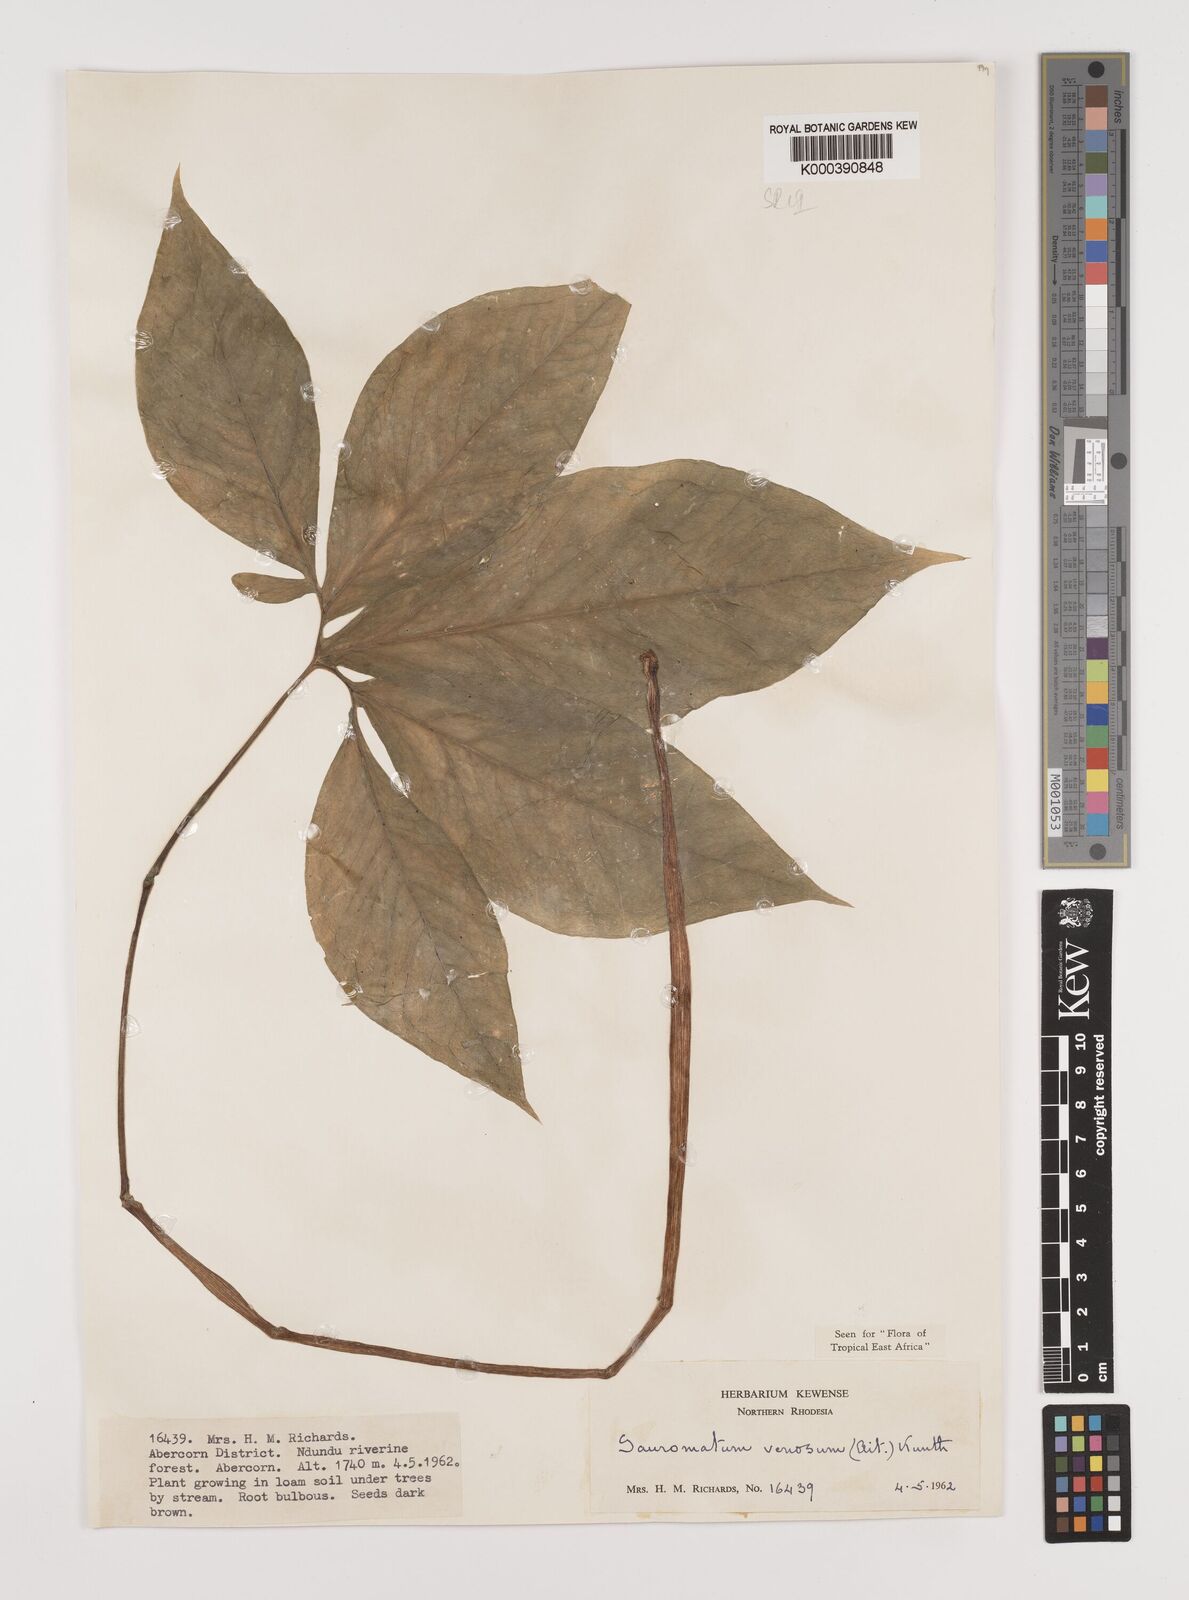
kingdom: Plantae
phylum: Tracheophyta
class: Liliopsida
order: Alismatales
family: Araceae
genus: Sauromatum
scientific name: Sauromatum venosum
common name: Voodoo lily
